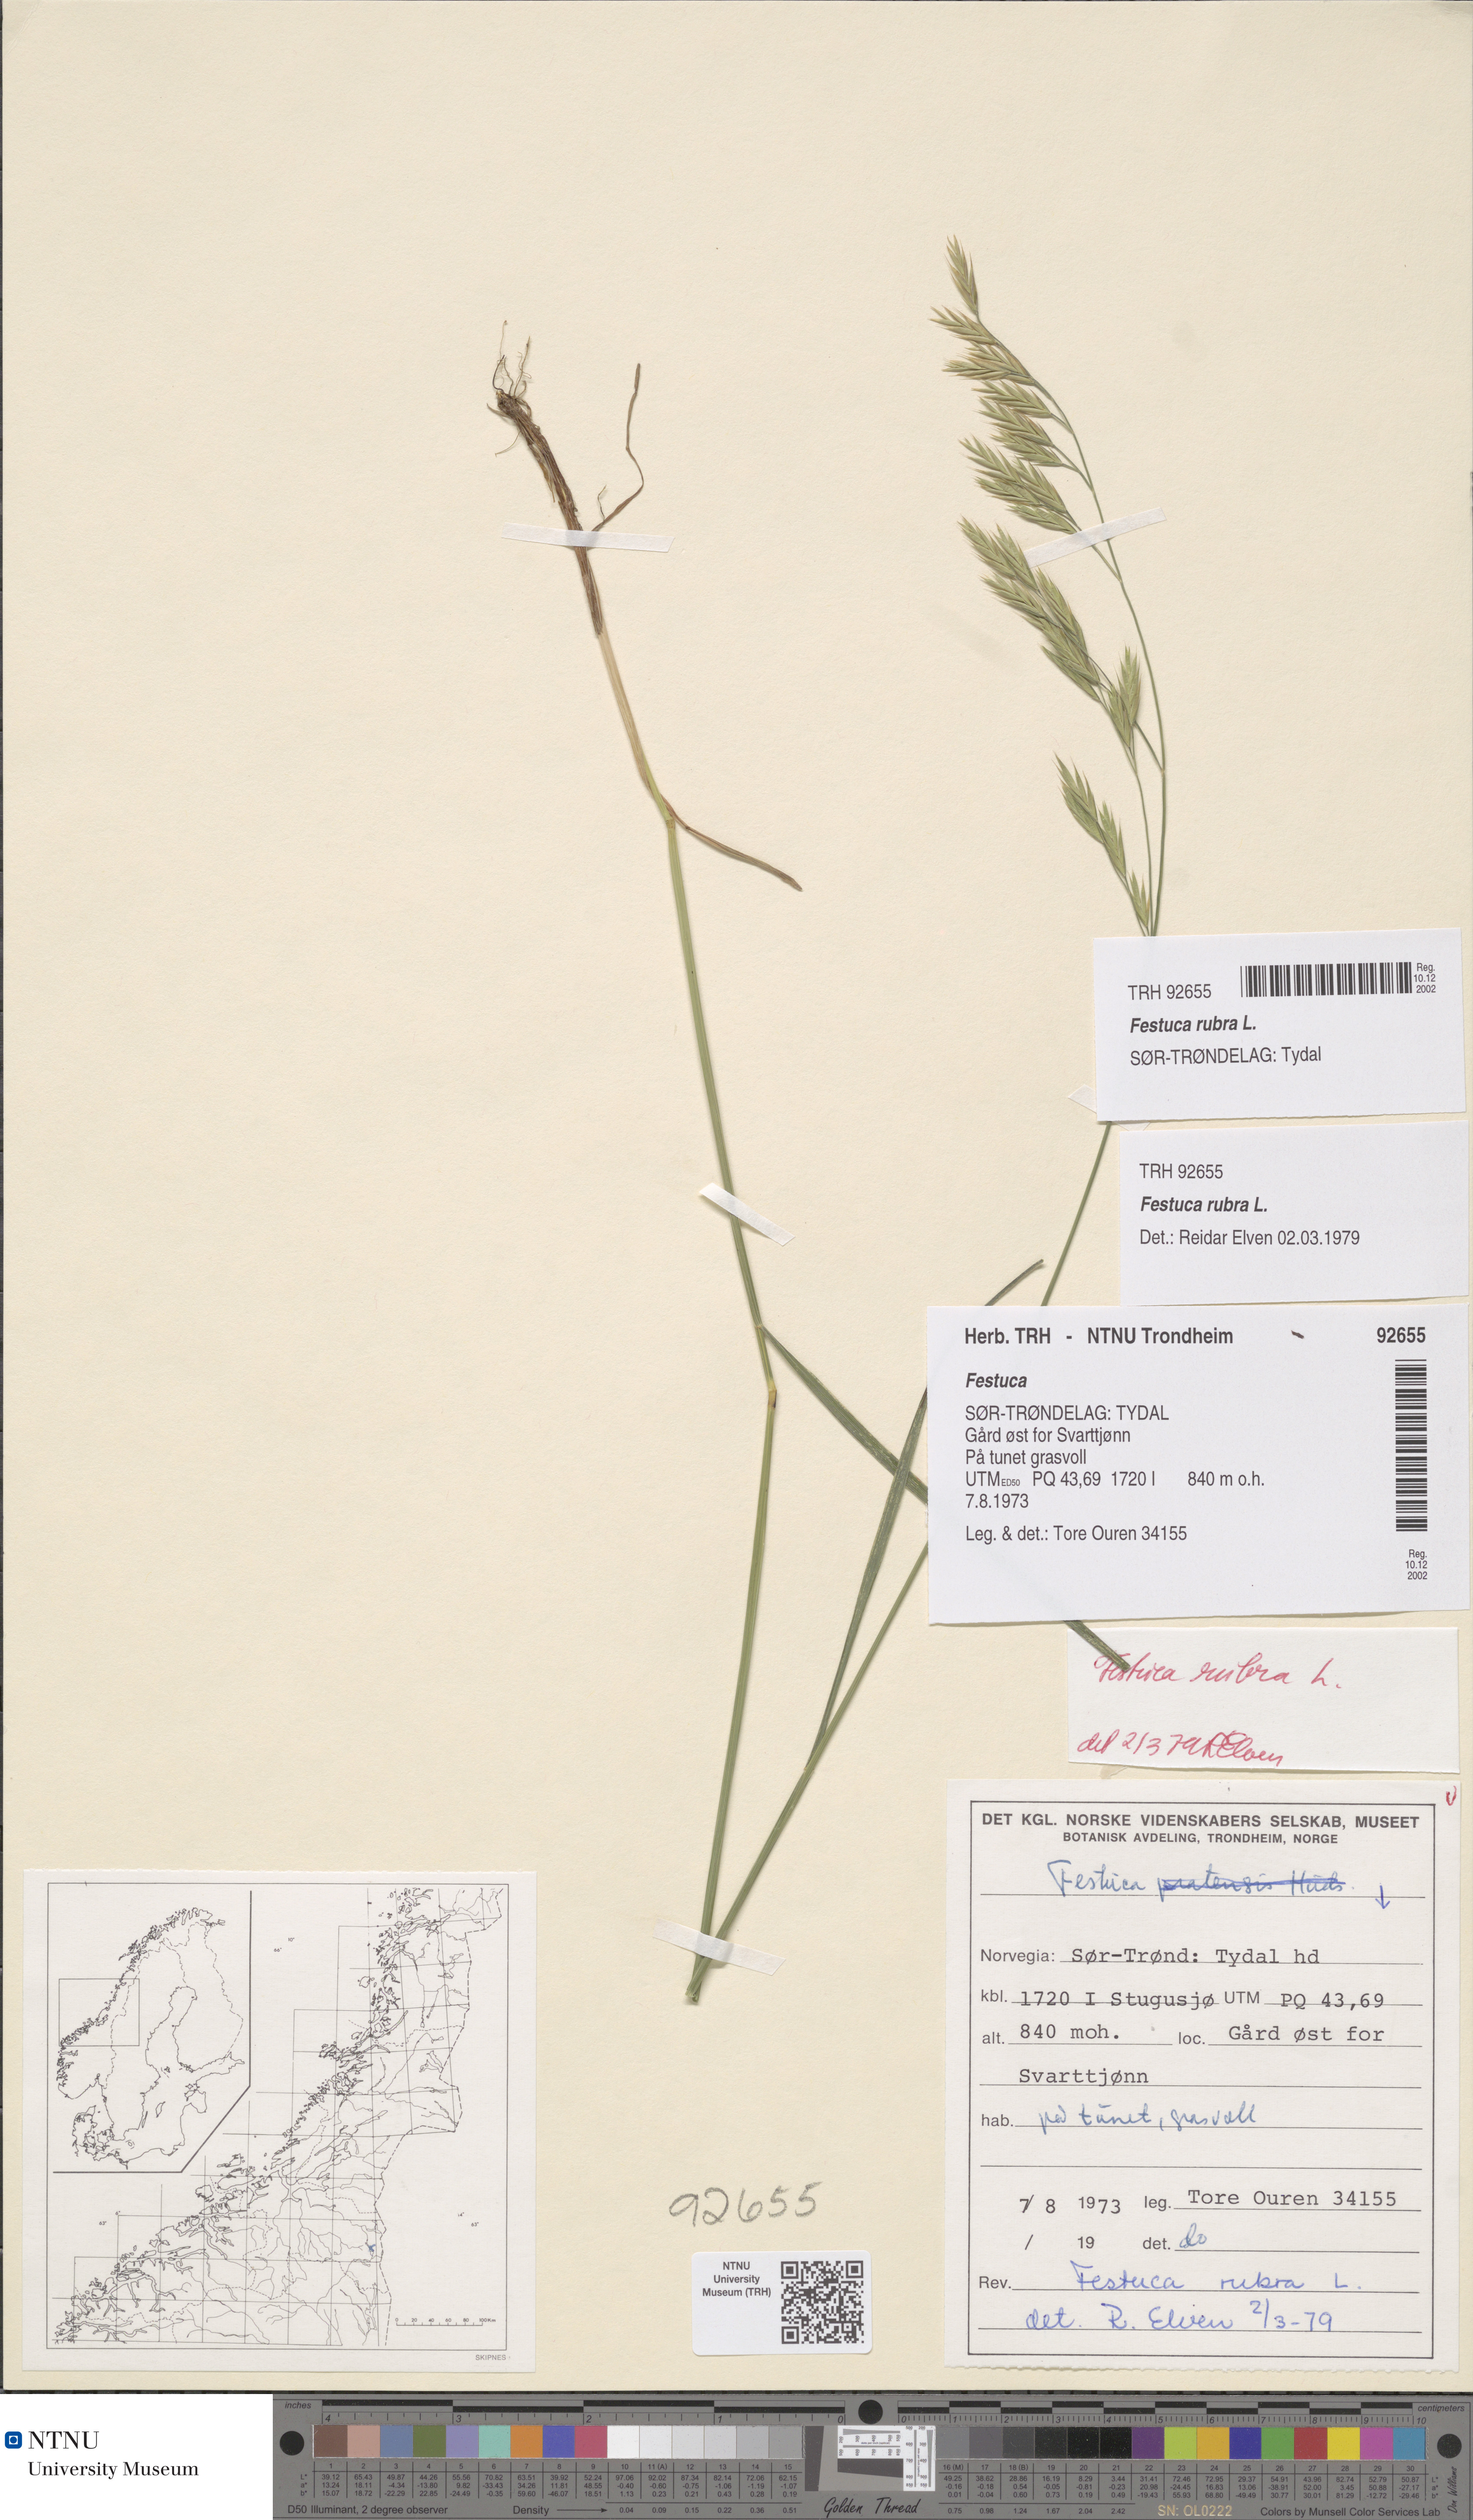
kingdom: Plantae
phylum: Tracheophyta
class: Liliopsida
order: Poales
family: Poaceae
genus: Festuca
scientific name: Festuca rubra
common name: Red fescue
